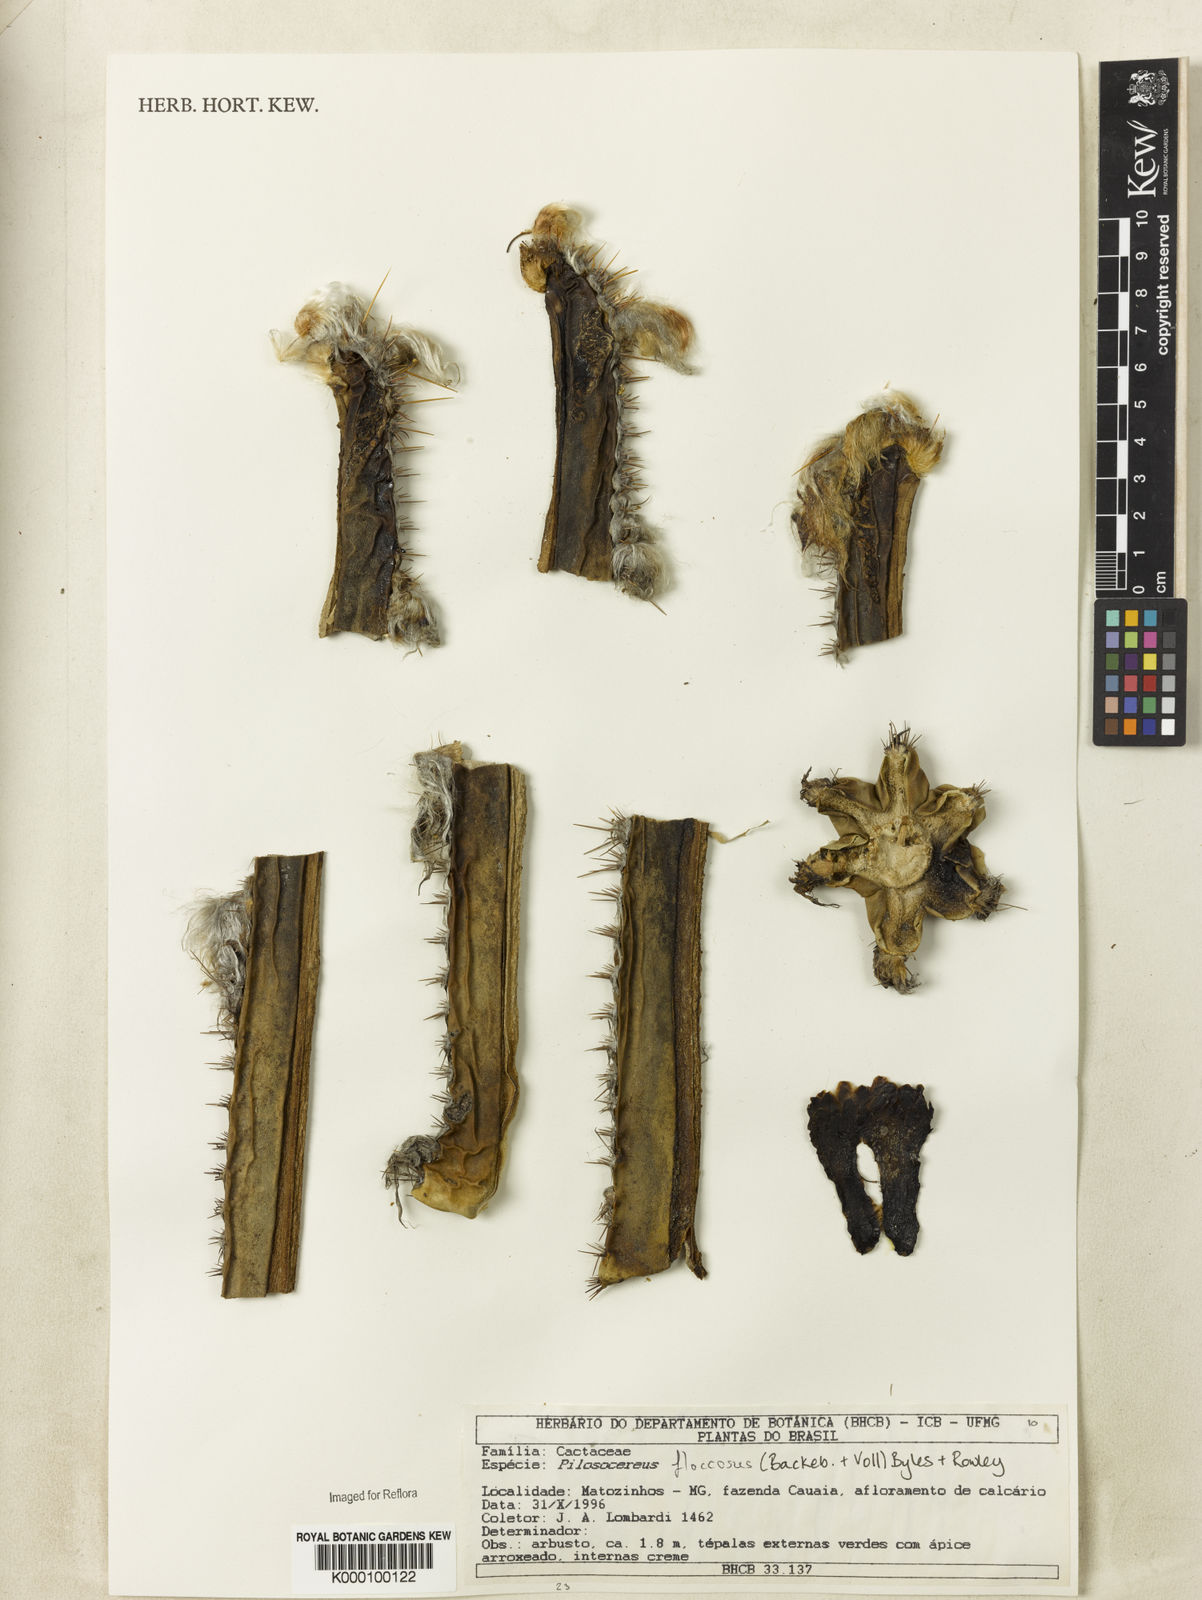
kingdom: Plantae
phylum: Tracheophyta
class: Magnoliopsida
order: Caryophyllales
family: Cactaceae
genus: Pilosocereus
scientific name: Pilosocereus floccosus
